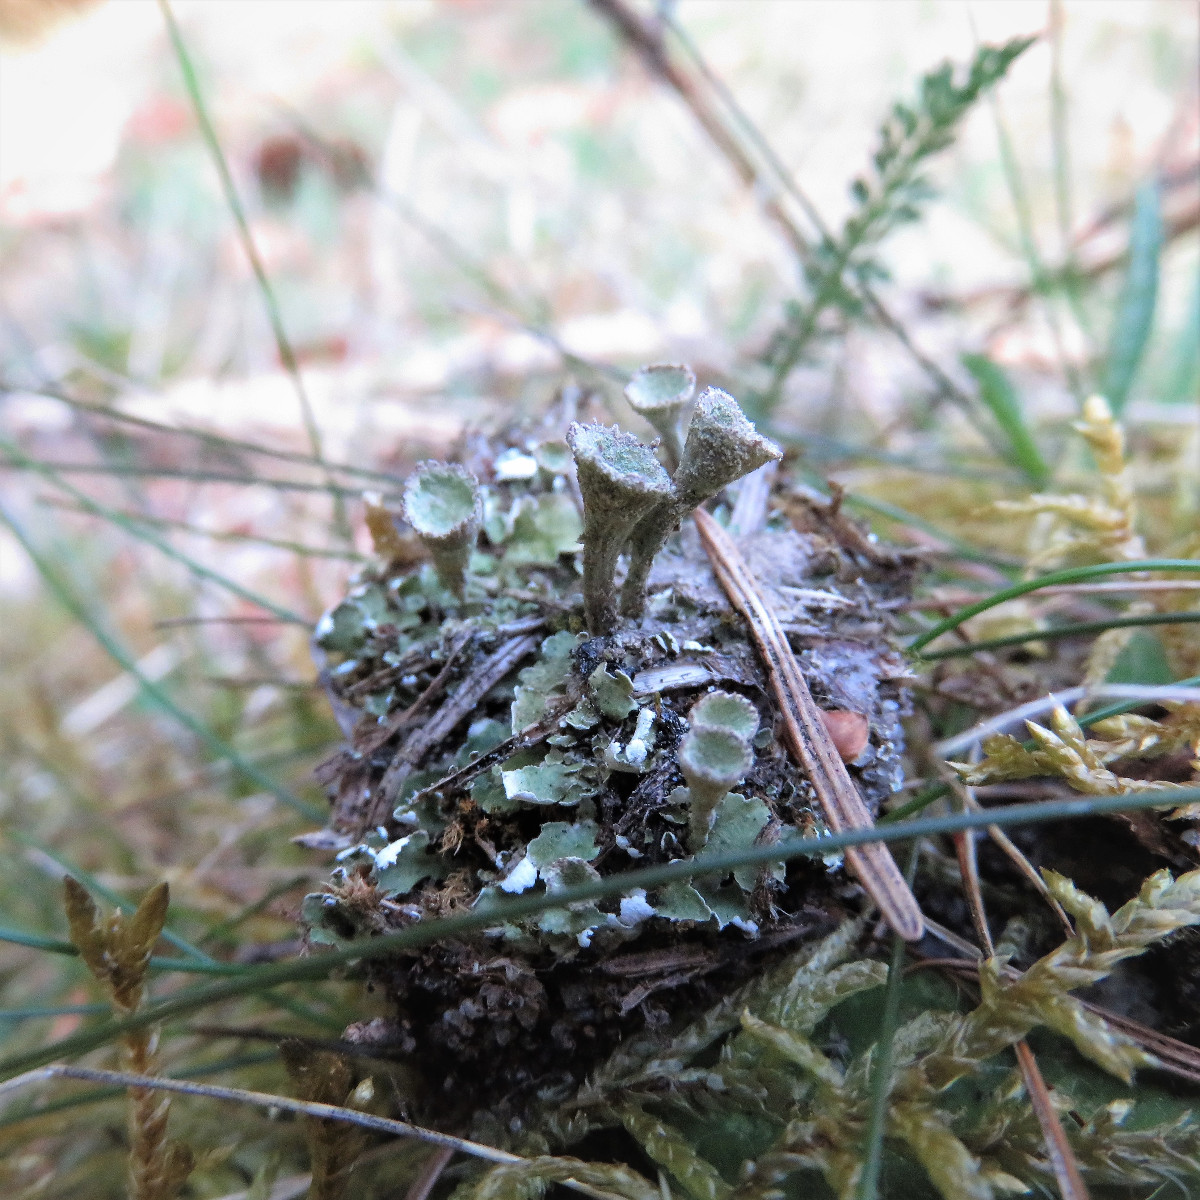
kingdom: Fungi
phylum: Ascomycota
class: Lecanoromycetes
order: Lecanorales
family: Cladoniaceae
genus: Cladonia
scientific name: Cladonia humilis
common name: lav bægerlav
